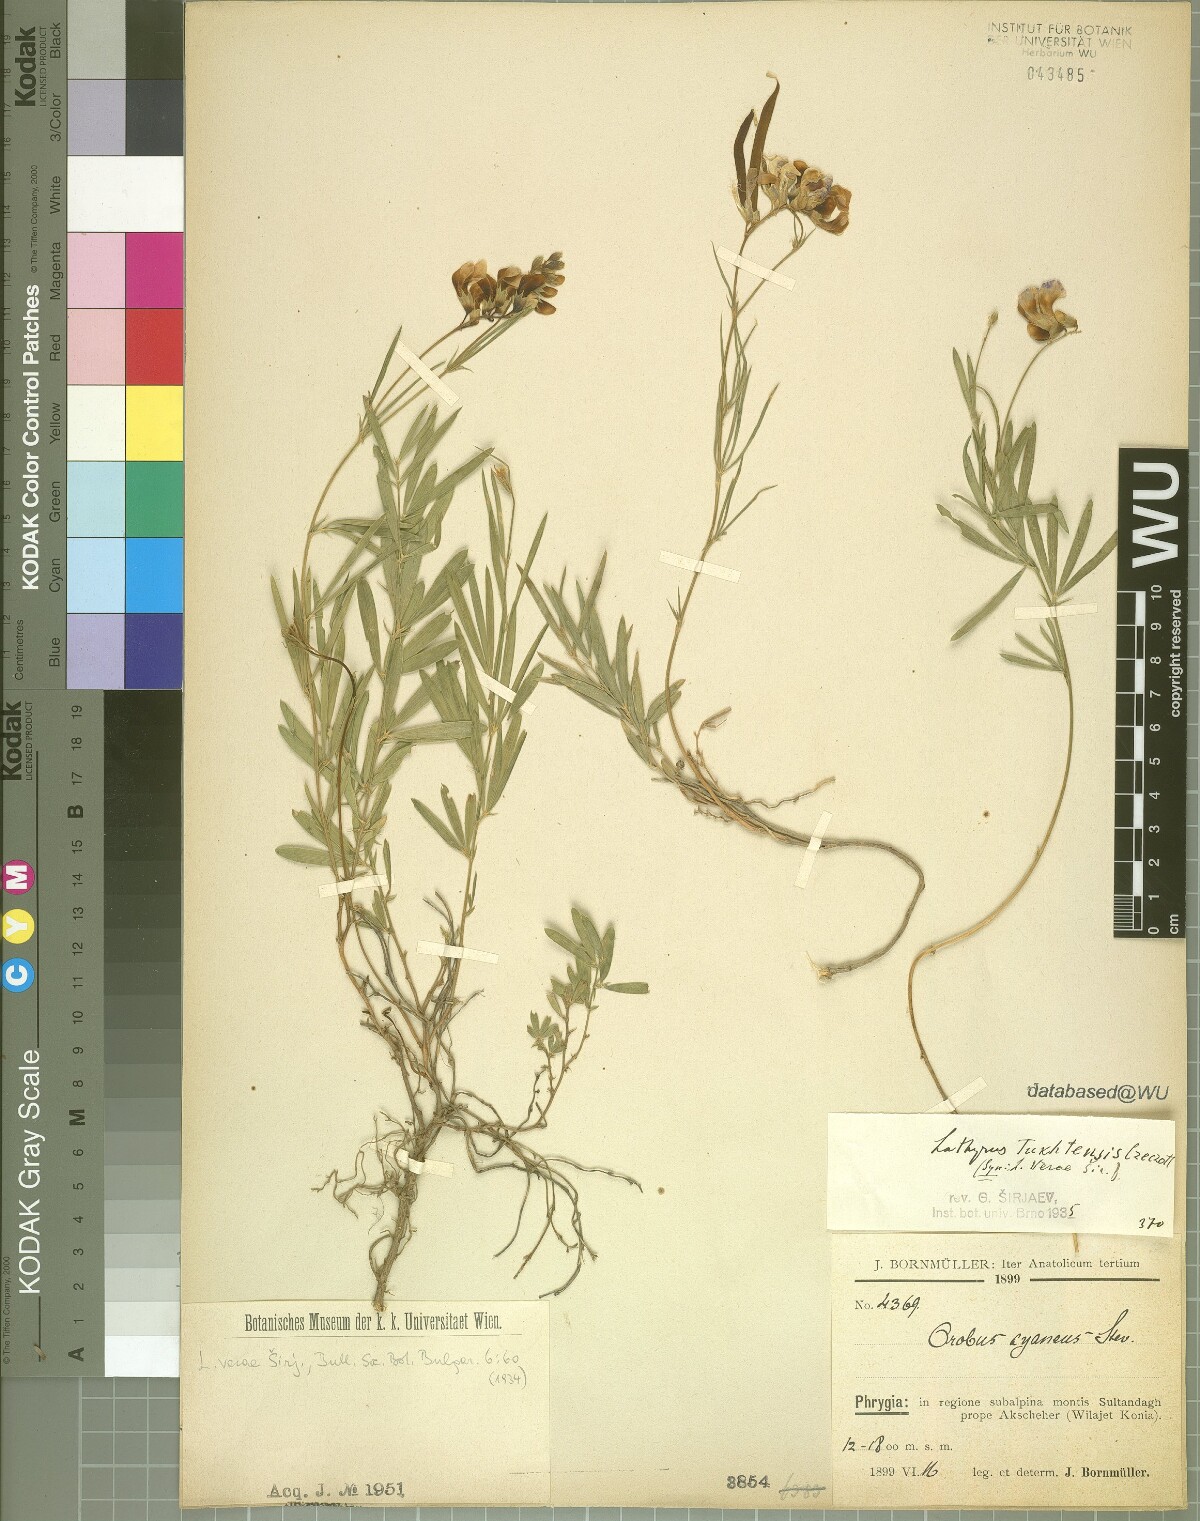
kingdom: Plantae
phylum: Tracheophyta
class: Magnoliopsida
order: Fabales
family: Fabaceae
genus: Lathyrus
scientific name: Lathyrus tukhtensis
